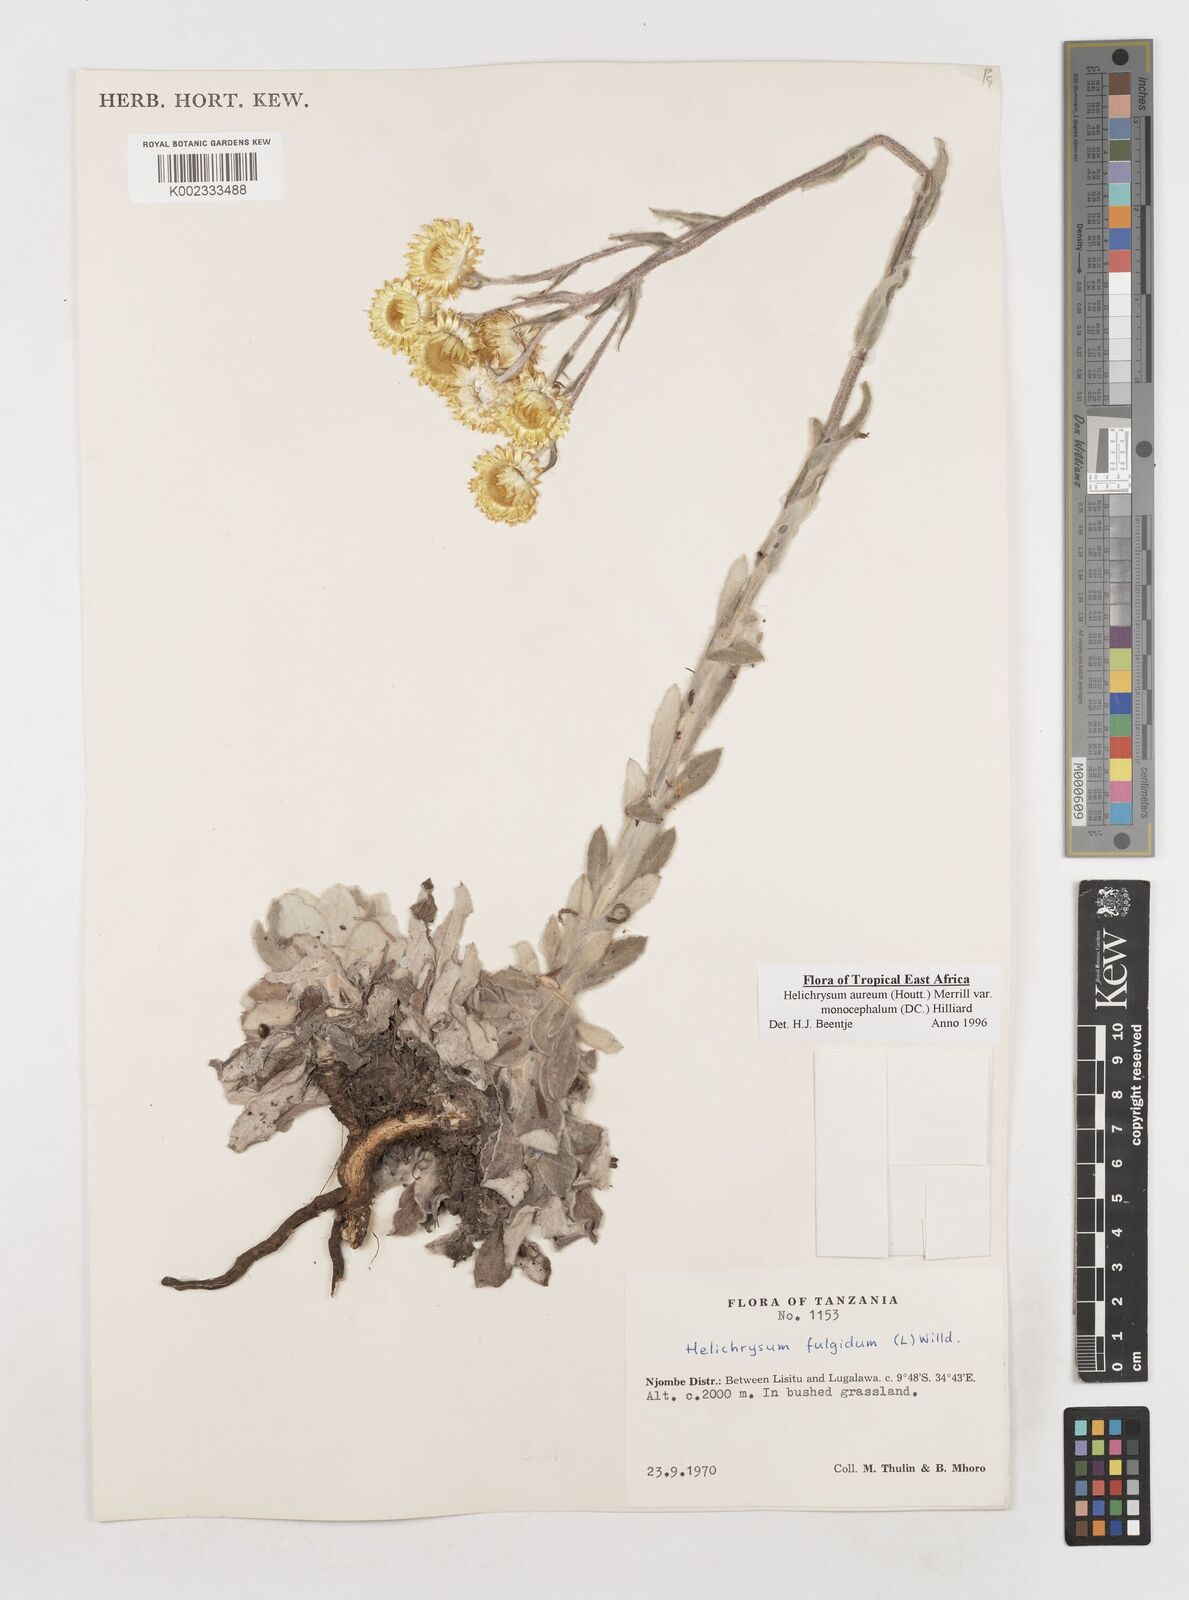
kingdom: Plantae
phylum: Tracheophyta
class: Magnoliopsida
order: Asterales
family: Asteraceae
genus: Helichrysum
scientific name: Helichrysum aureum
